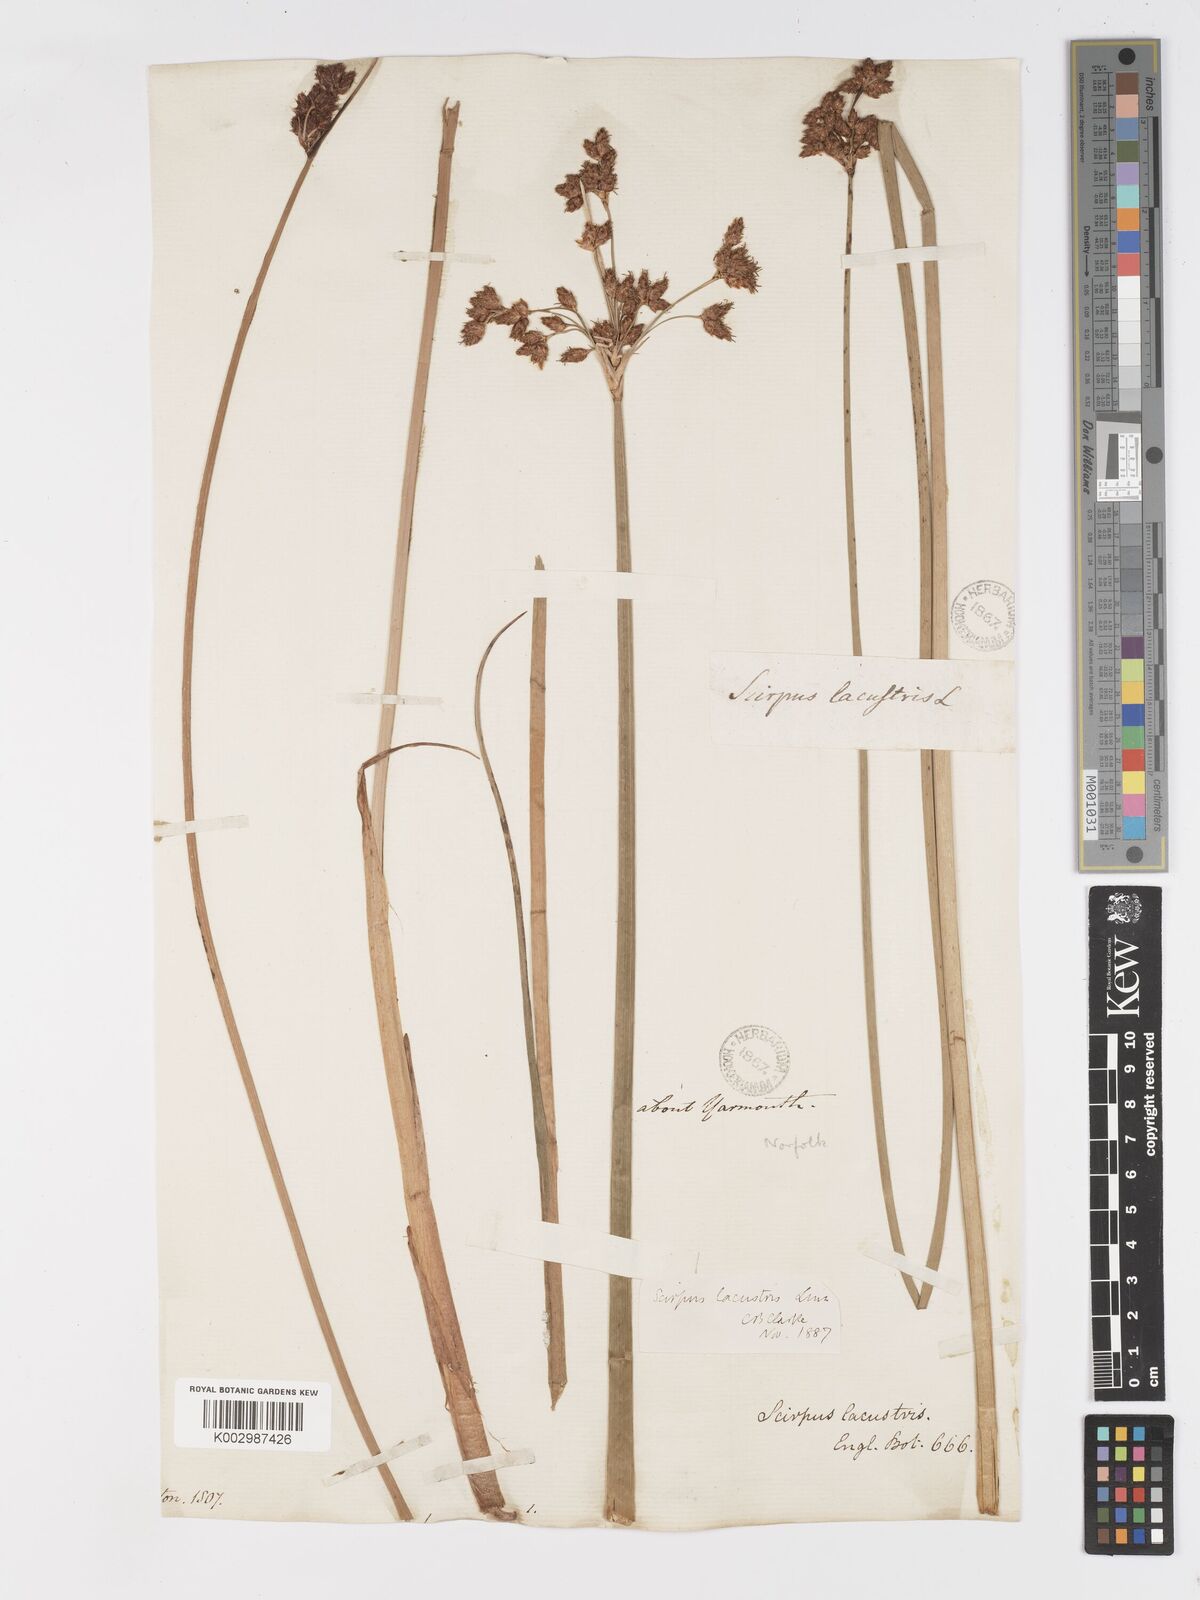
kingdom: Plantae
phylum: Tracheophyta
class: Liliopsida
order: Poales
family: Cyperaceae
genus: Schoenoplectus
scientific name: Schoenoplectus lacustris
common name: Common club-rush
